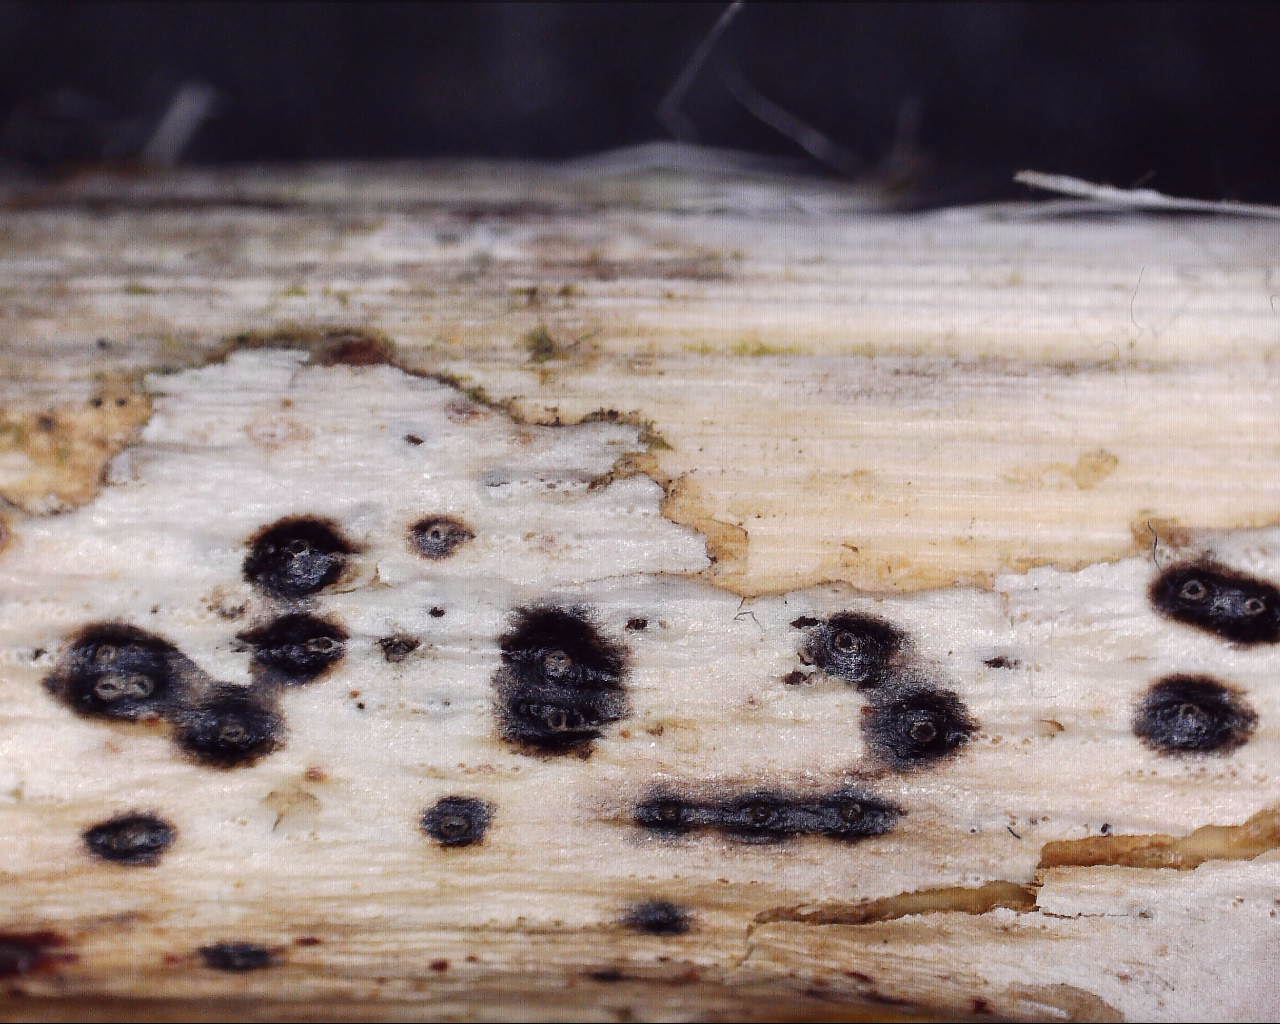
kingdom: Fungi
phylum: Ascomycota
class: Sordariomycetes
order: Amphisphaeriales
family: Clypeosphaeriaceae
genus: Clypeosphaeria
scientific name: Clypeosphaeria mamillana
